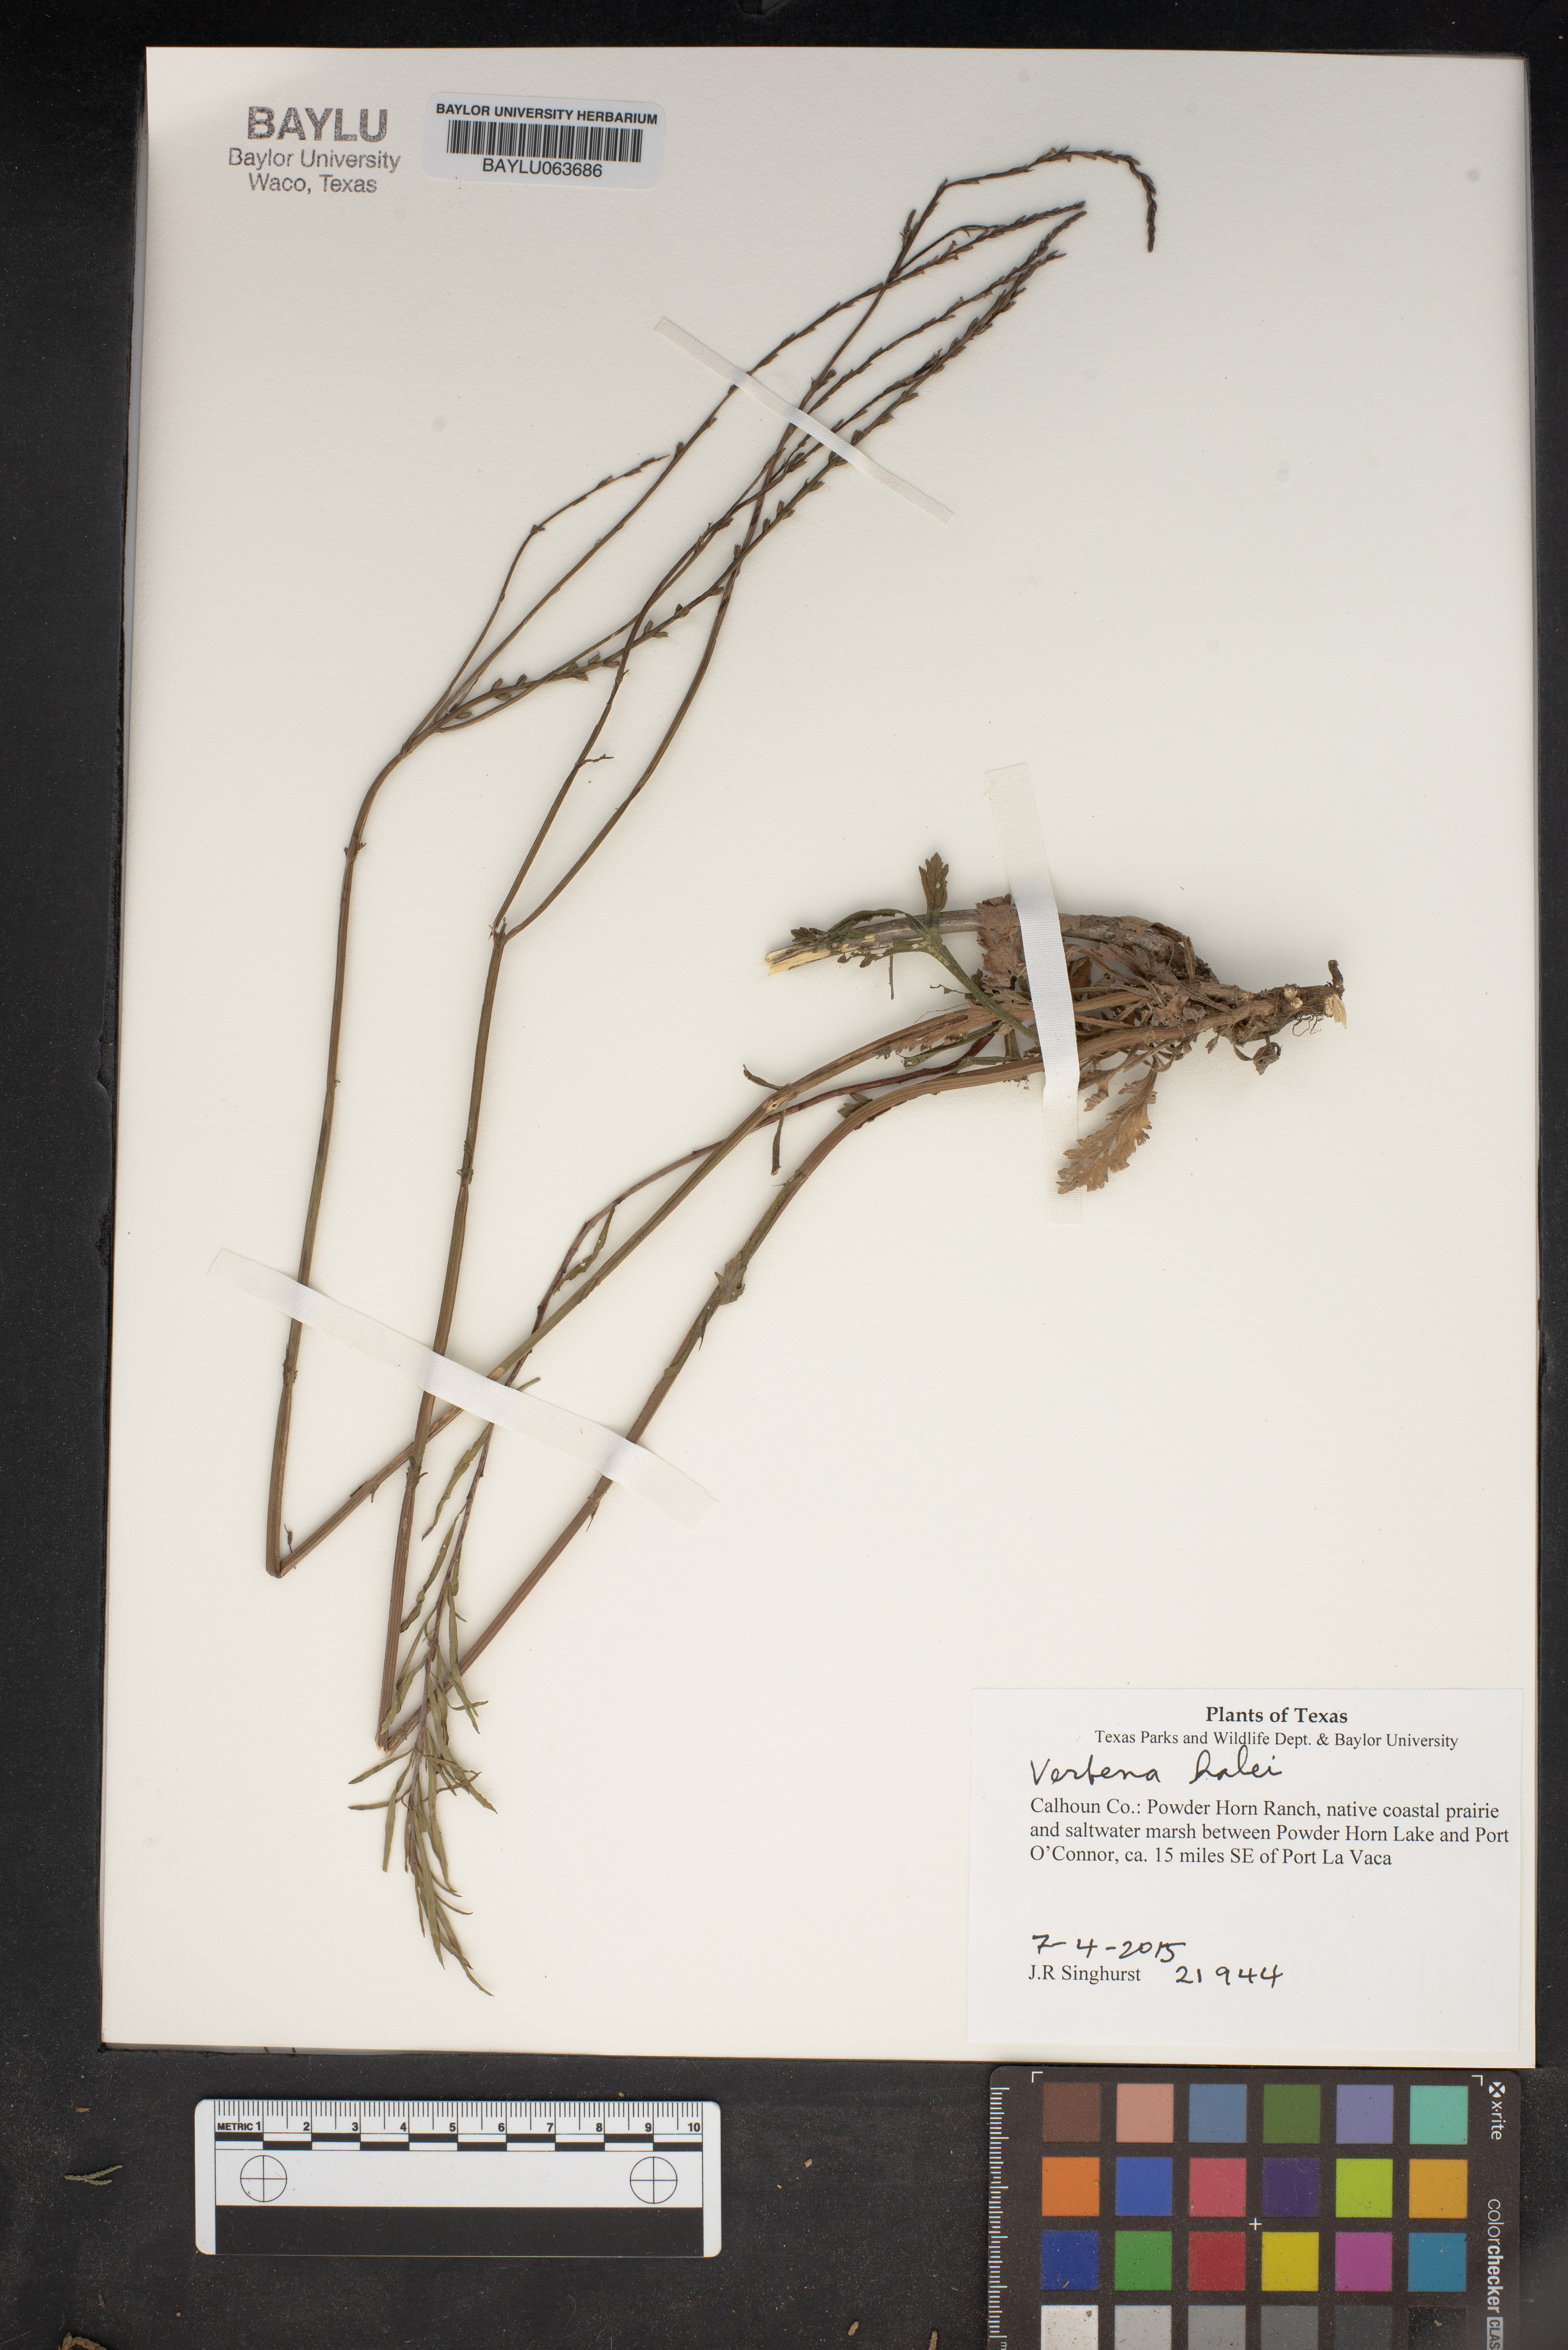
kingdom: Plantae
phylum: Tracheophyta
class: Magnoliopsida
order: Lamiales
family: Verbenaceae
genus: Verbena
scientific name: Verbena halei
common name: Texas vervain
